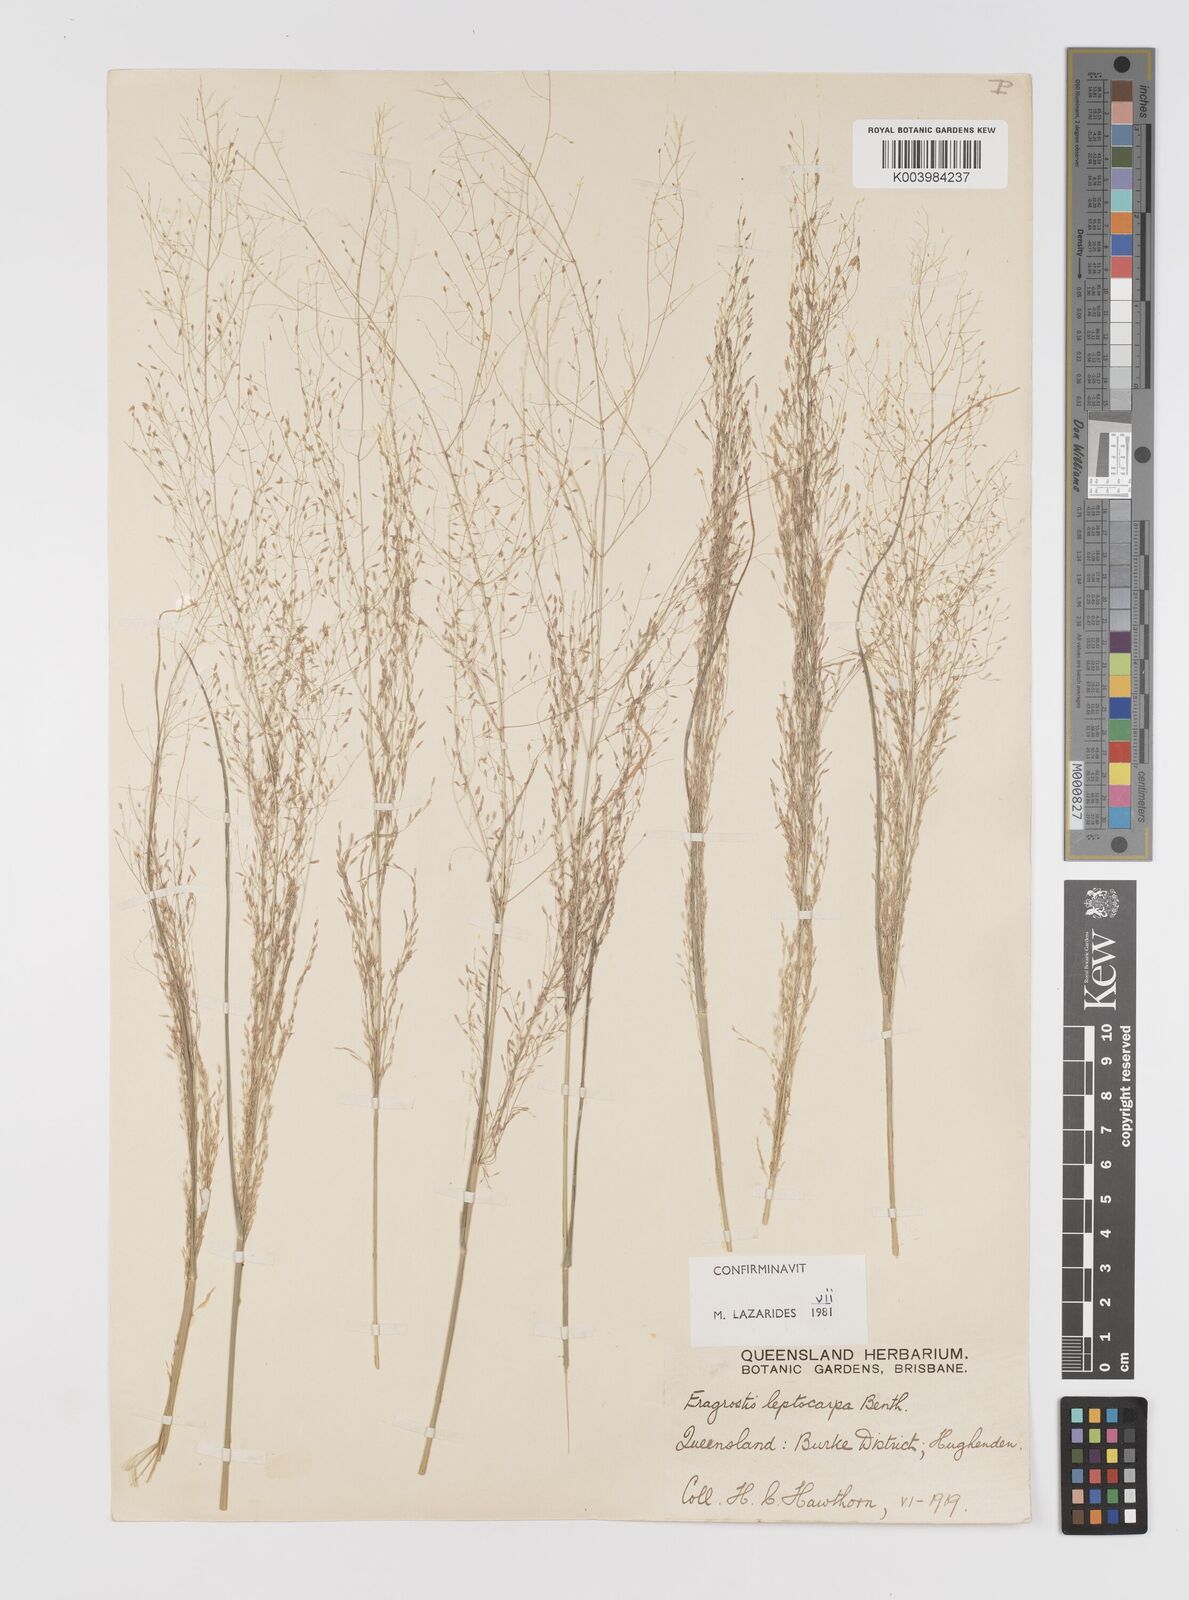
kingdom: Plantae
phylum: Tracheophyta
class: Liliopsida
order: Poales
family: Poaceae
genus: Eragrostis
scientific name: Eragrostis leptocarpa
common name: Drooping love grass
